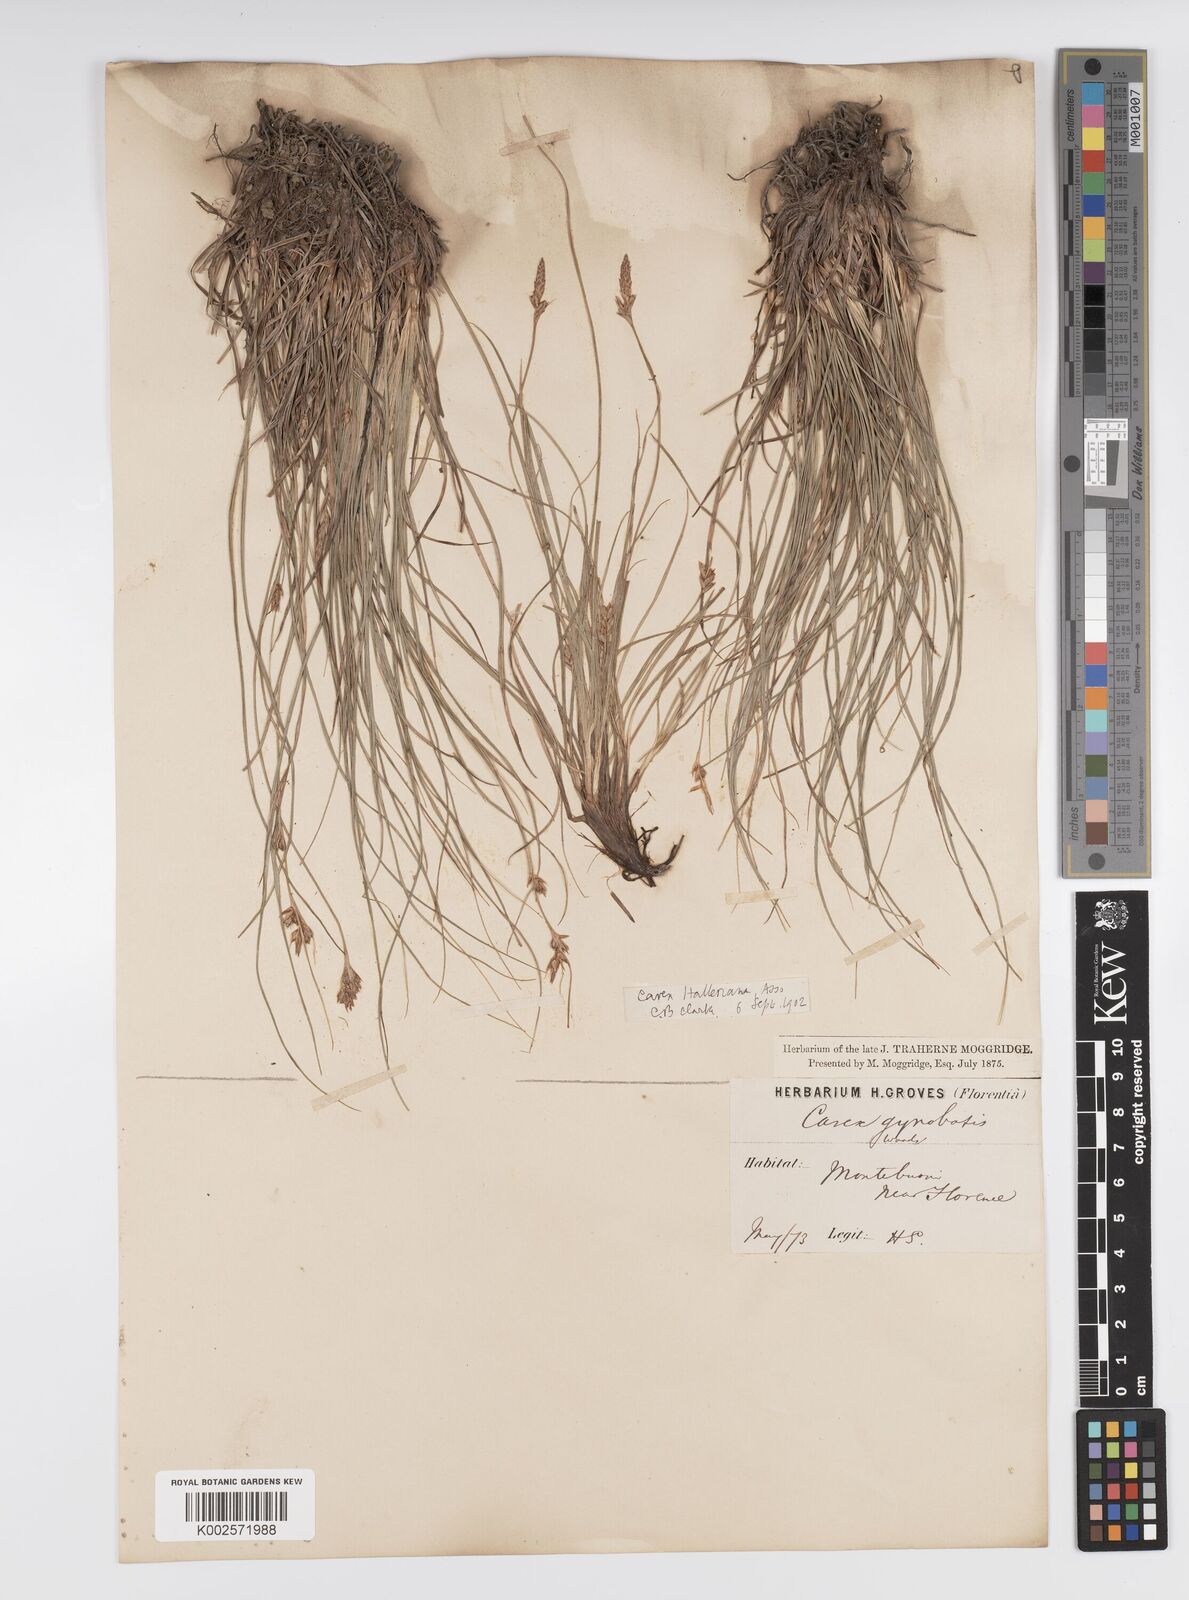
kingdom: Plantae
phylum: Tracheophyta
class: Liliopsida
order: Poales
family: Cyperaceae
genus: Carex
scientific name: Carex halleriana
